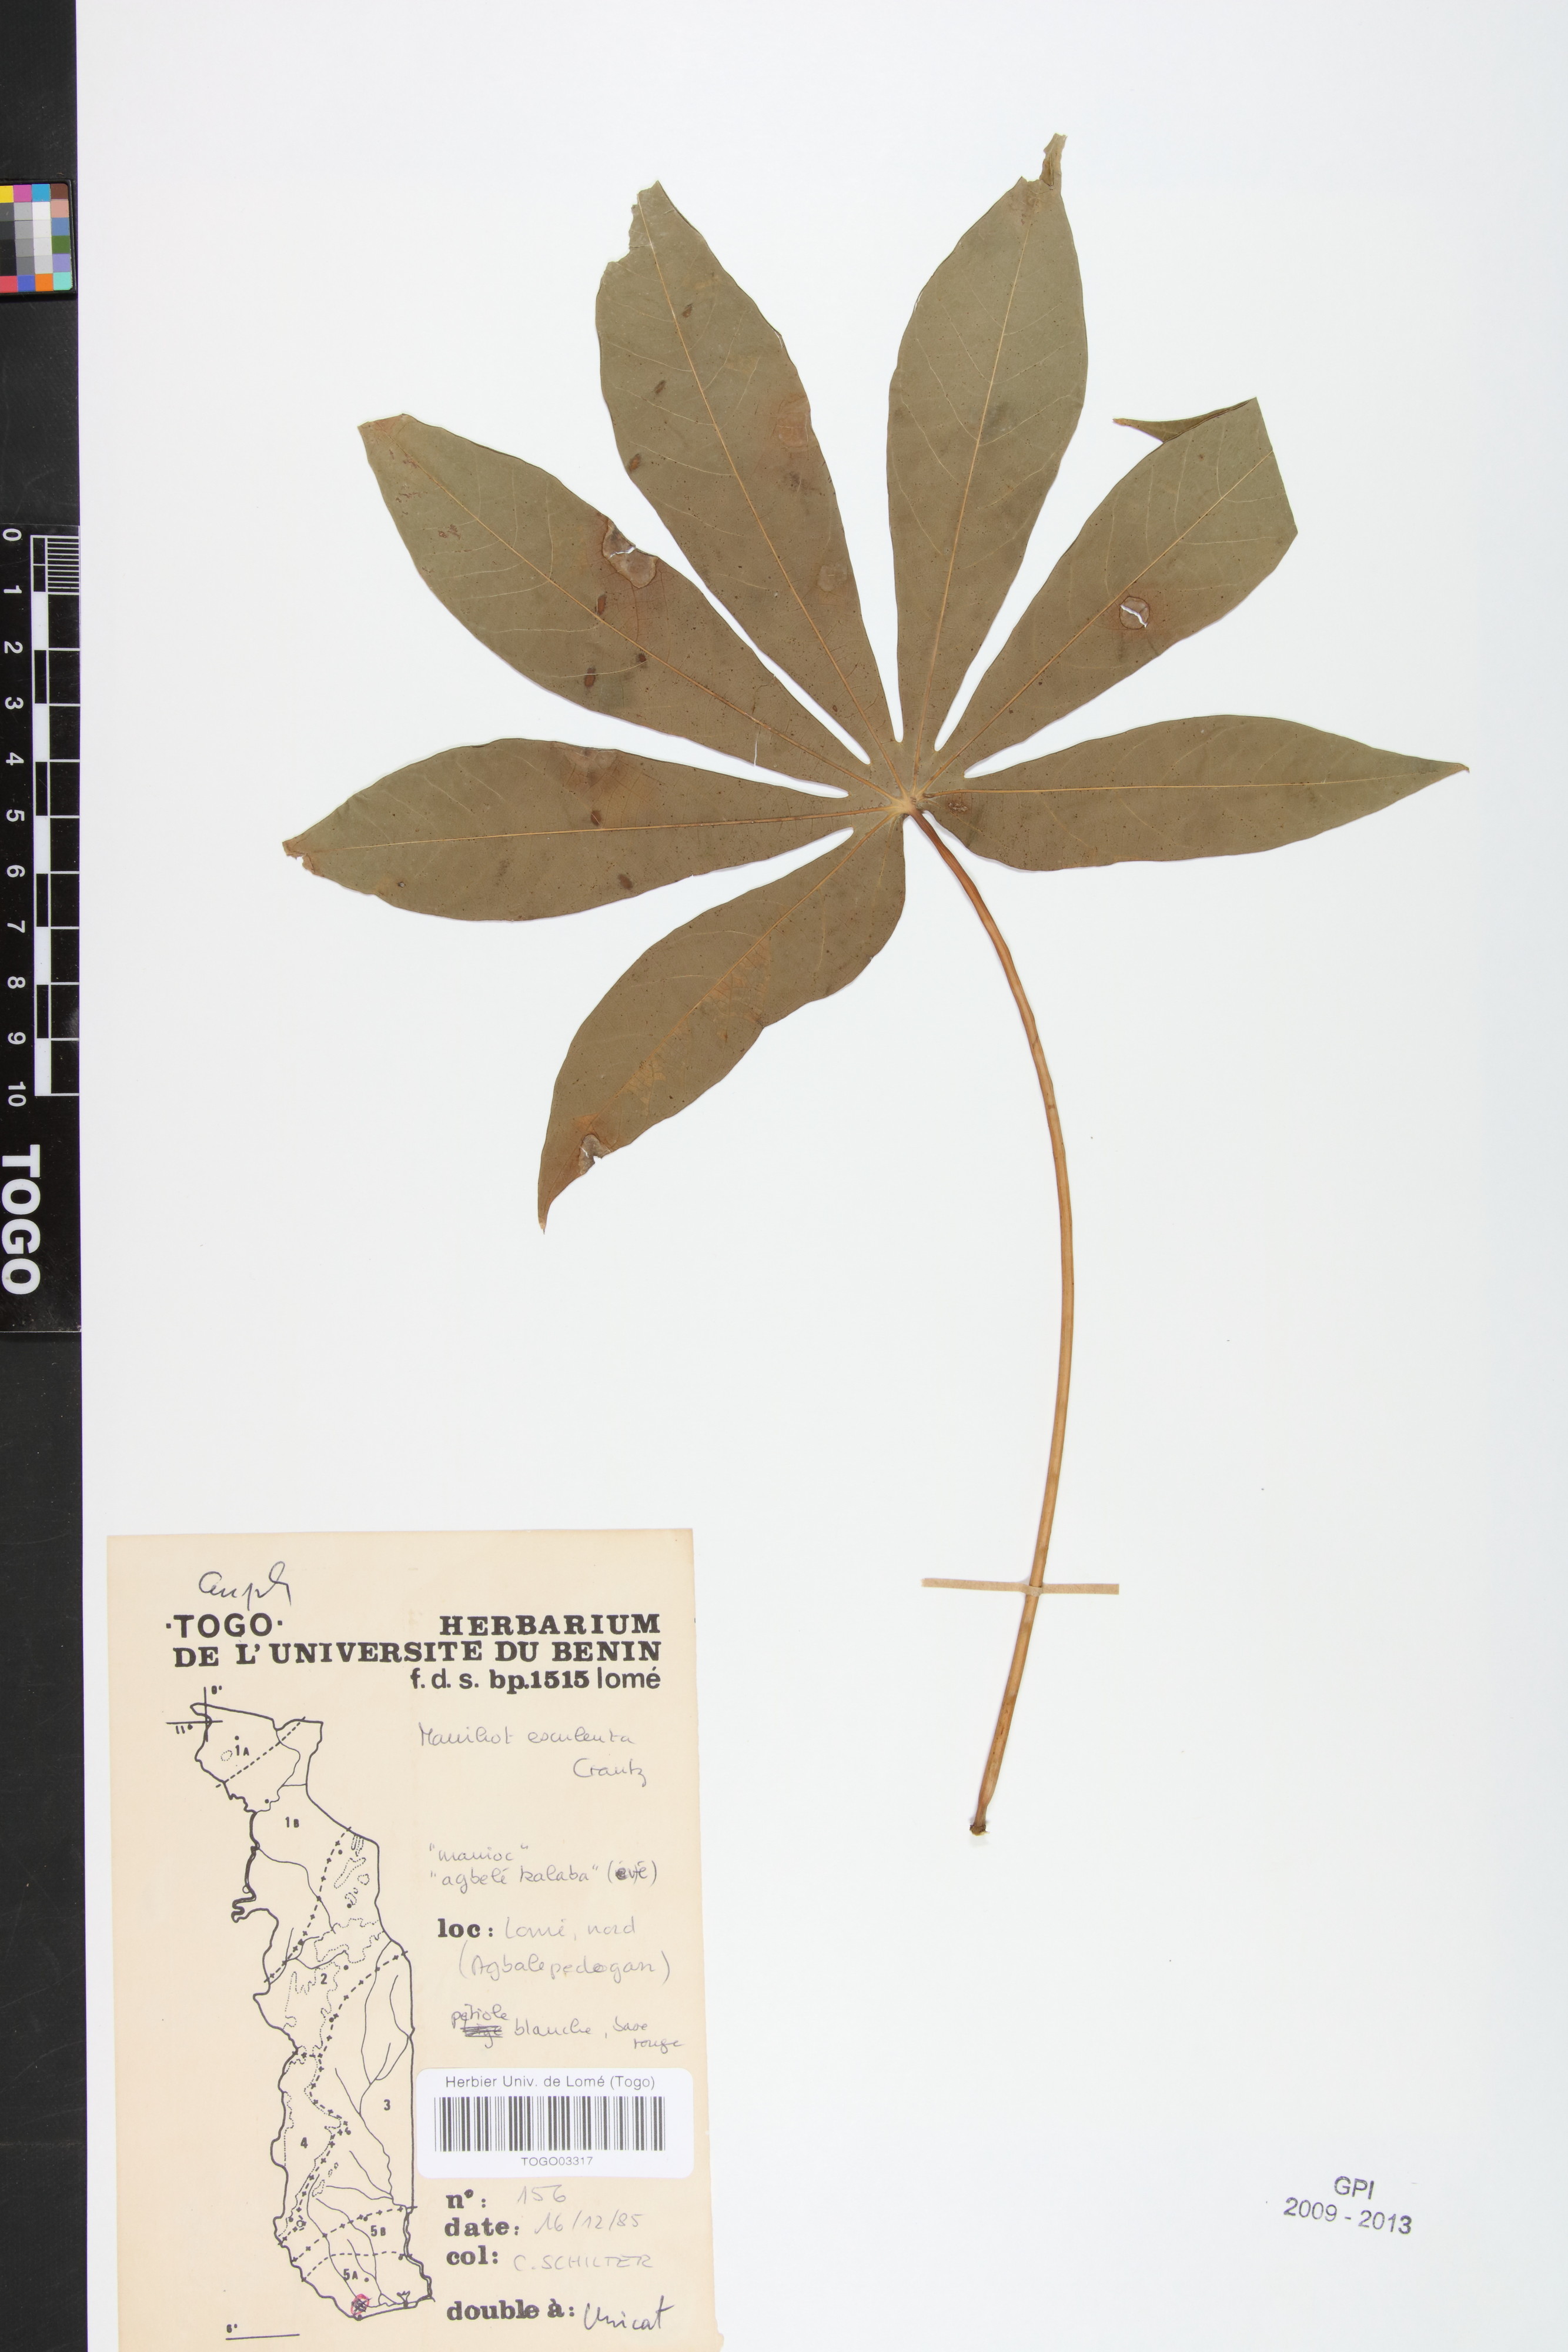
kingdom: Plantae
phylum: Tracheophyta
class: Magnoliopsida
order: Malpighiales
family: Euphorbiaceae
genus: Manihot
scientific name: Manihot esculenta
